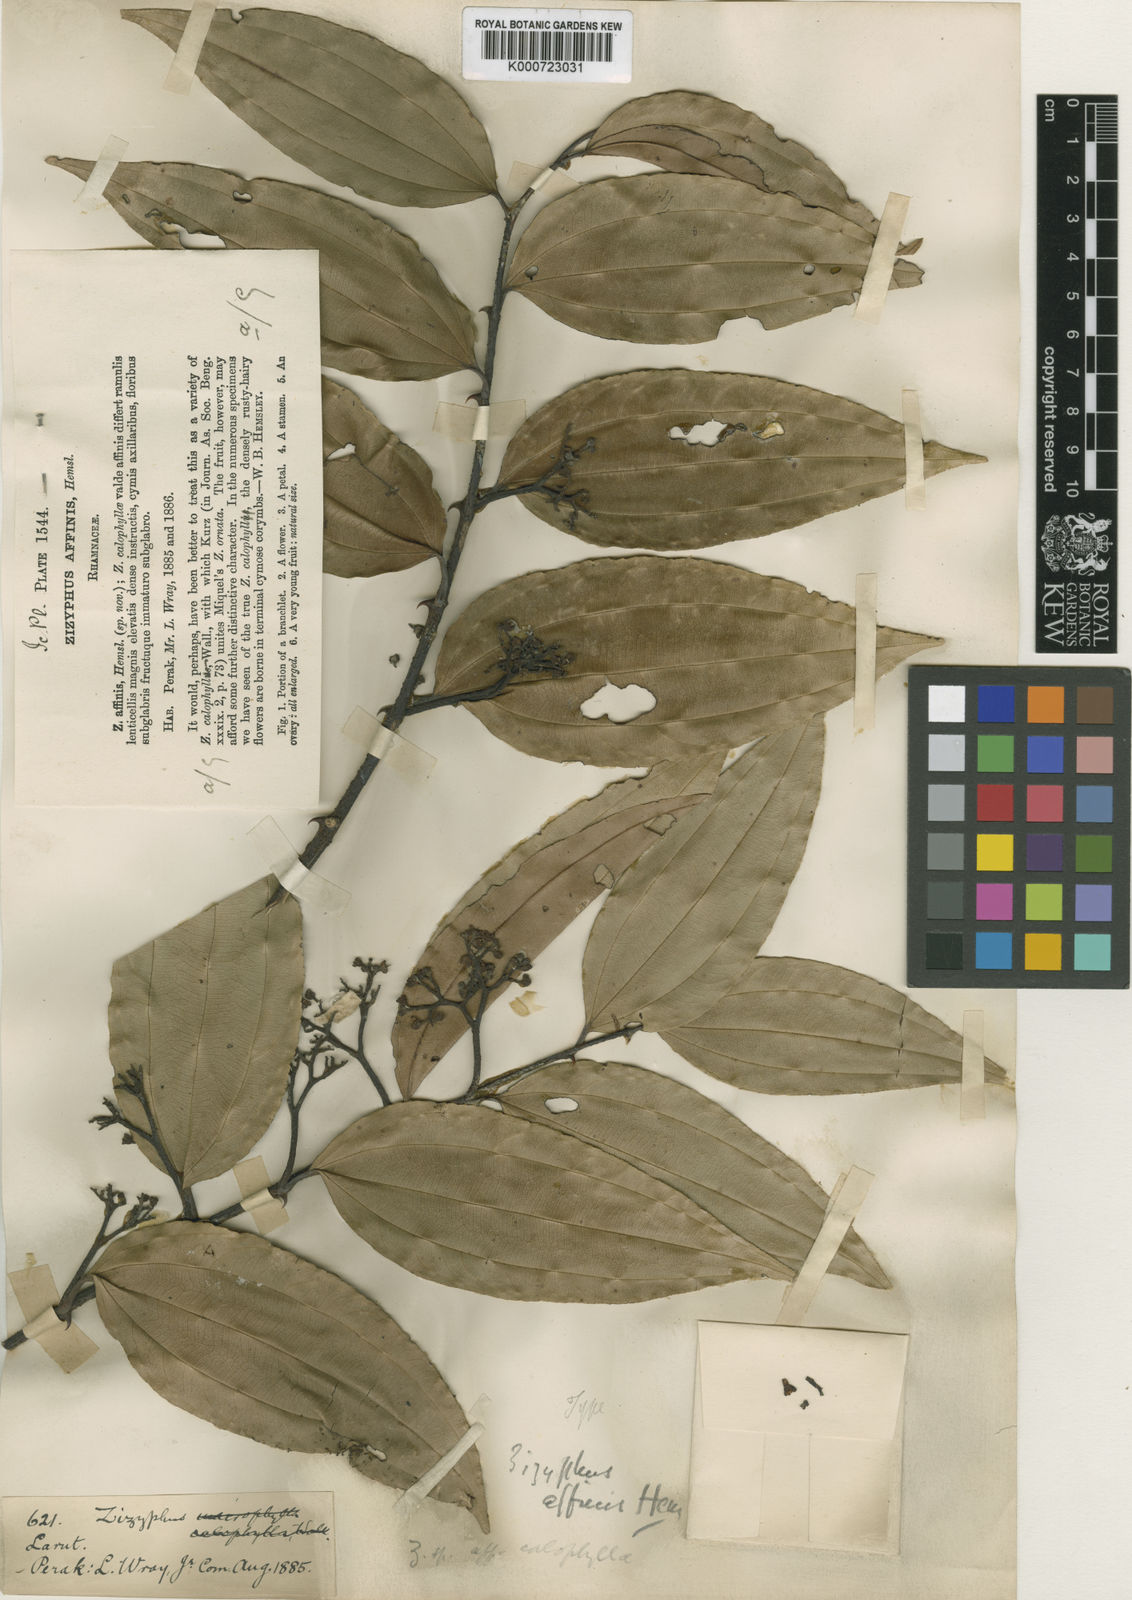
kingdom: Plantae
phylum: Tracheophyta
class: Magnoliopsida
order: Rosales
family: Rhamnaceae
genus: Ziziphus
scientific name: Ziziphus affinis
